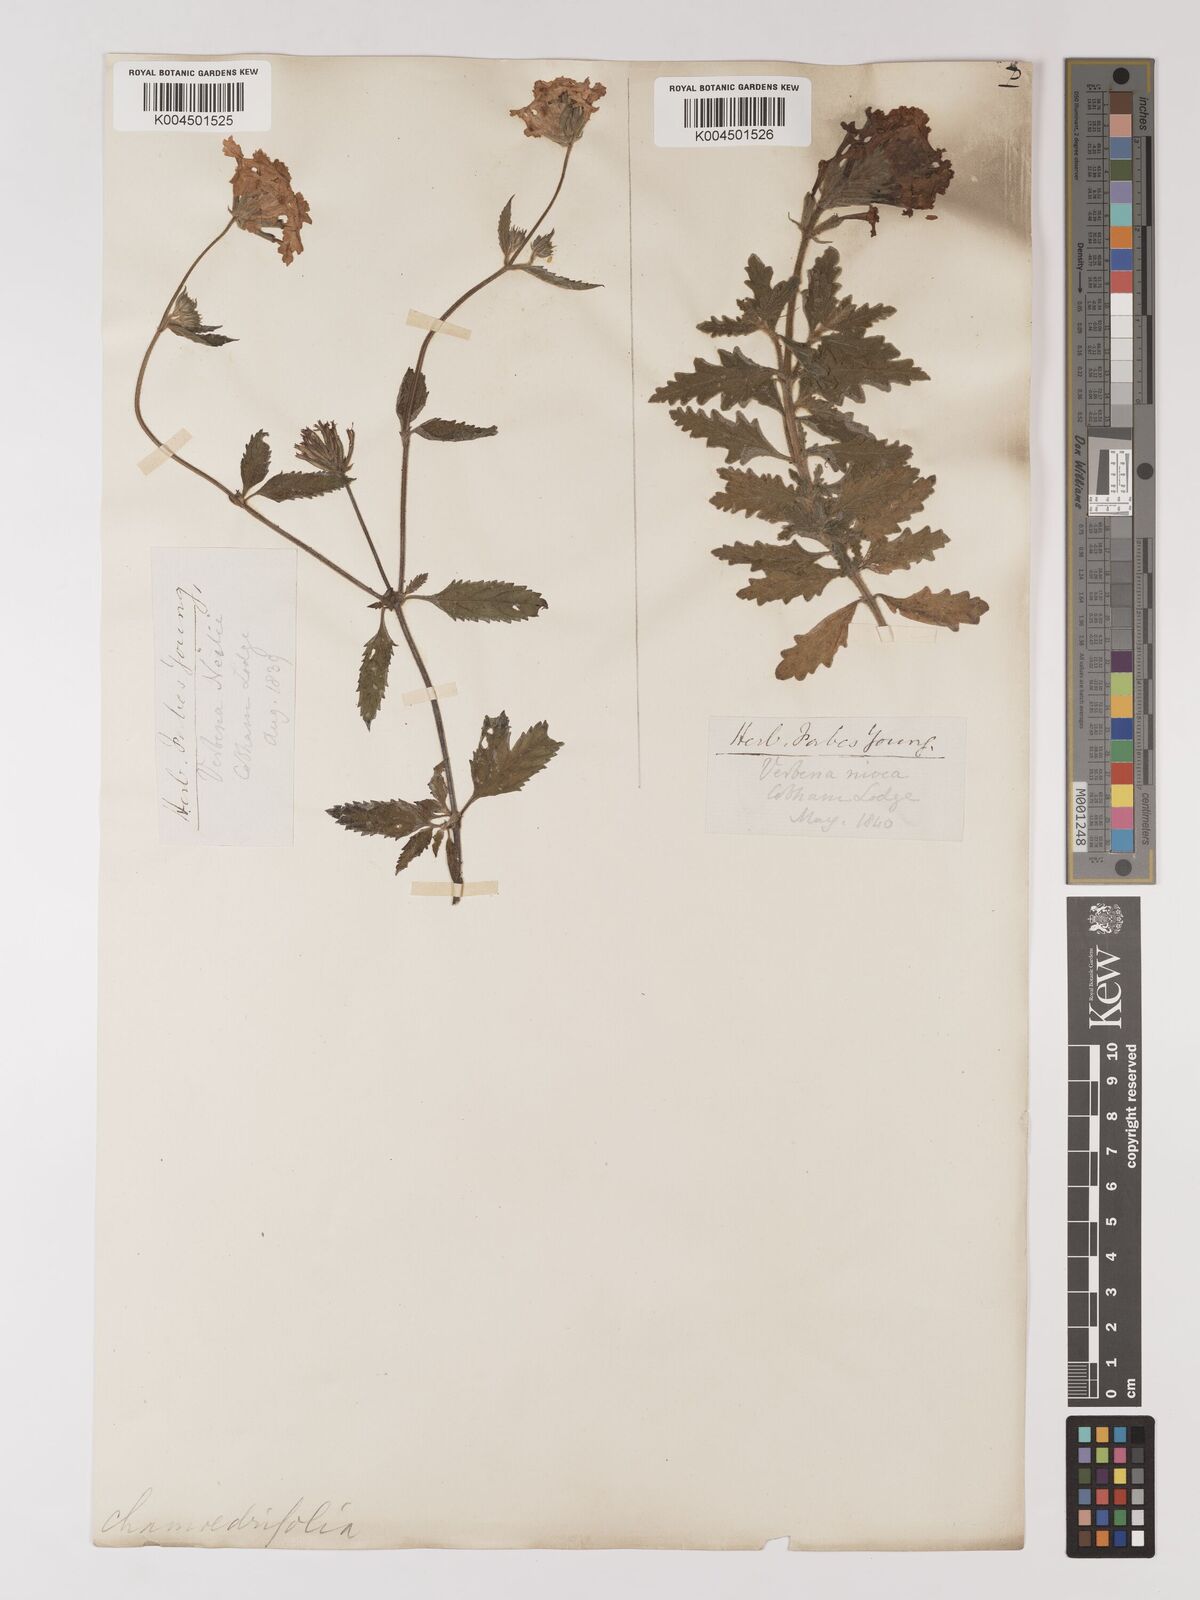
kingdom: Plantae
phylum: Tracheophyta
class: Magnoliopsida
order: Lamiales
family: Verbenaceae
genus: Verbena
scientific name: Verbena peruviana
